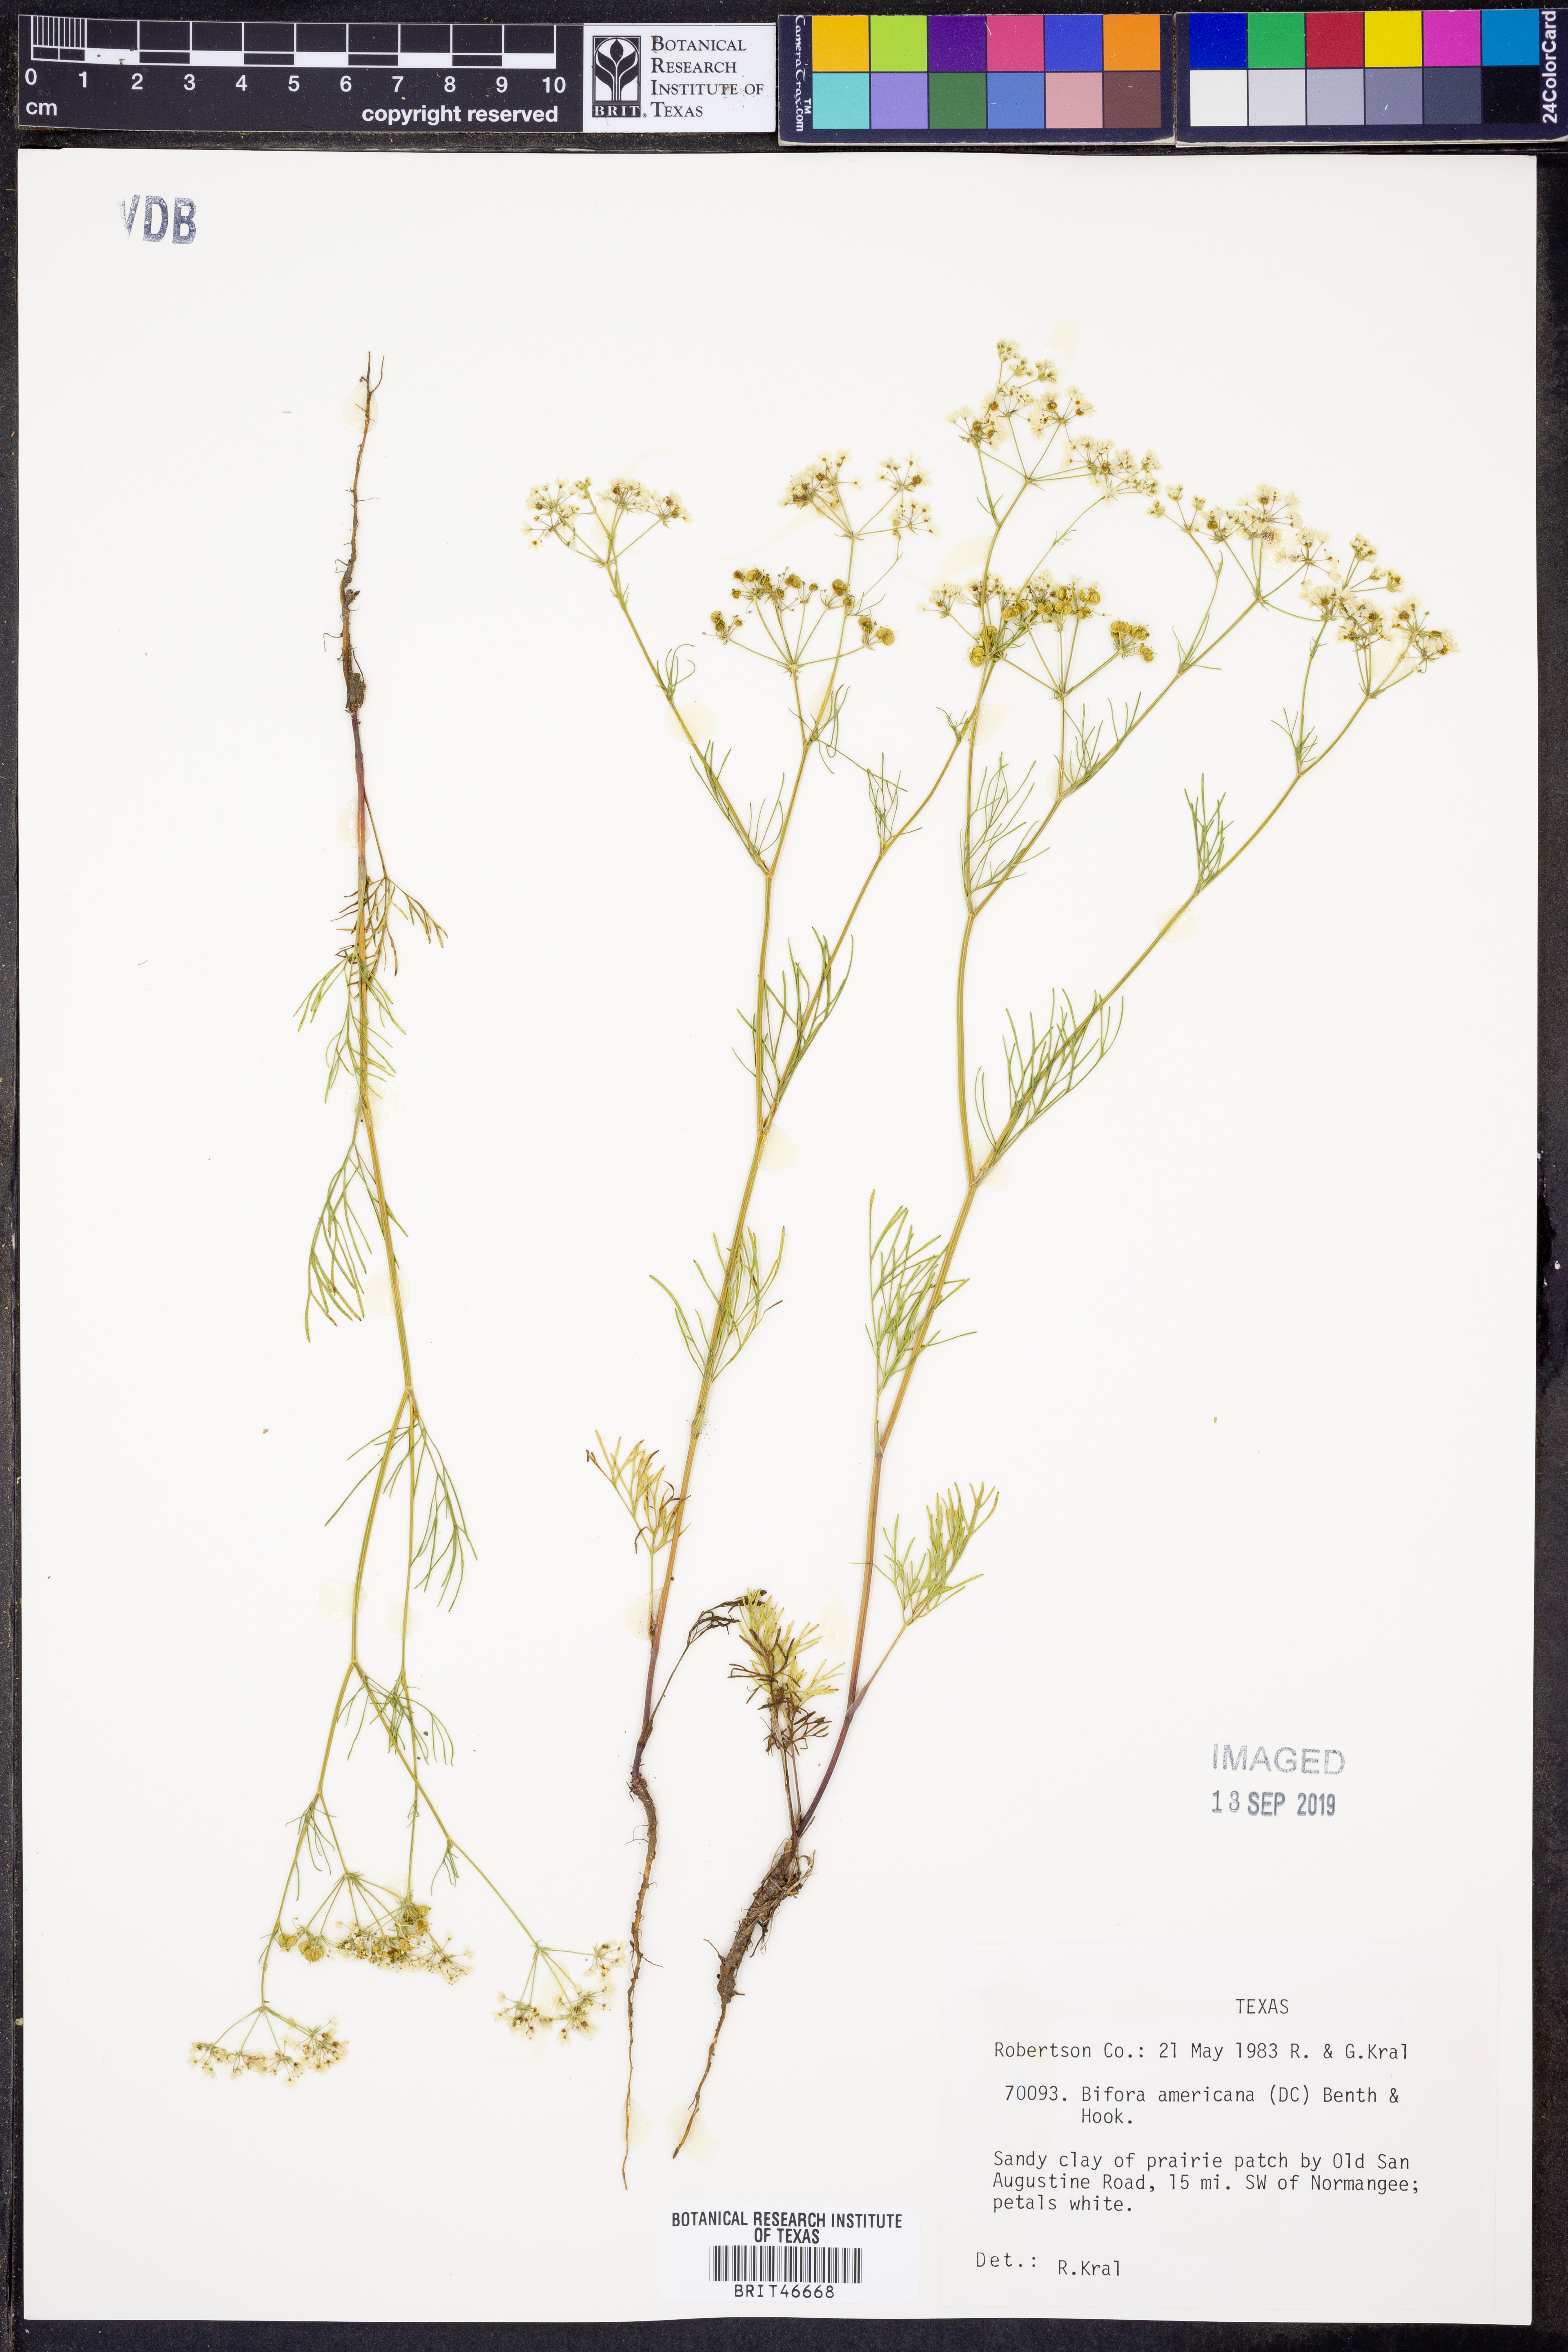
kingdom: Plantae
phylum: Tracheophyta
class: Magnoliopsida
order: Apiales
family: Apiaceae
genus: Atrema
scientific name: Atrema americanum
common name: Prairie-bishop
